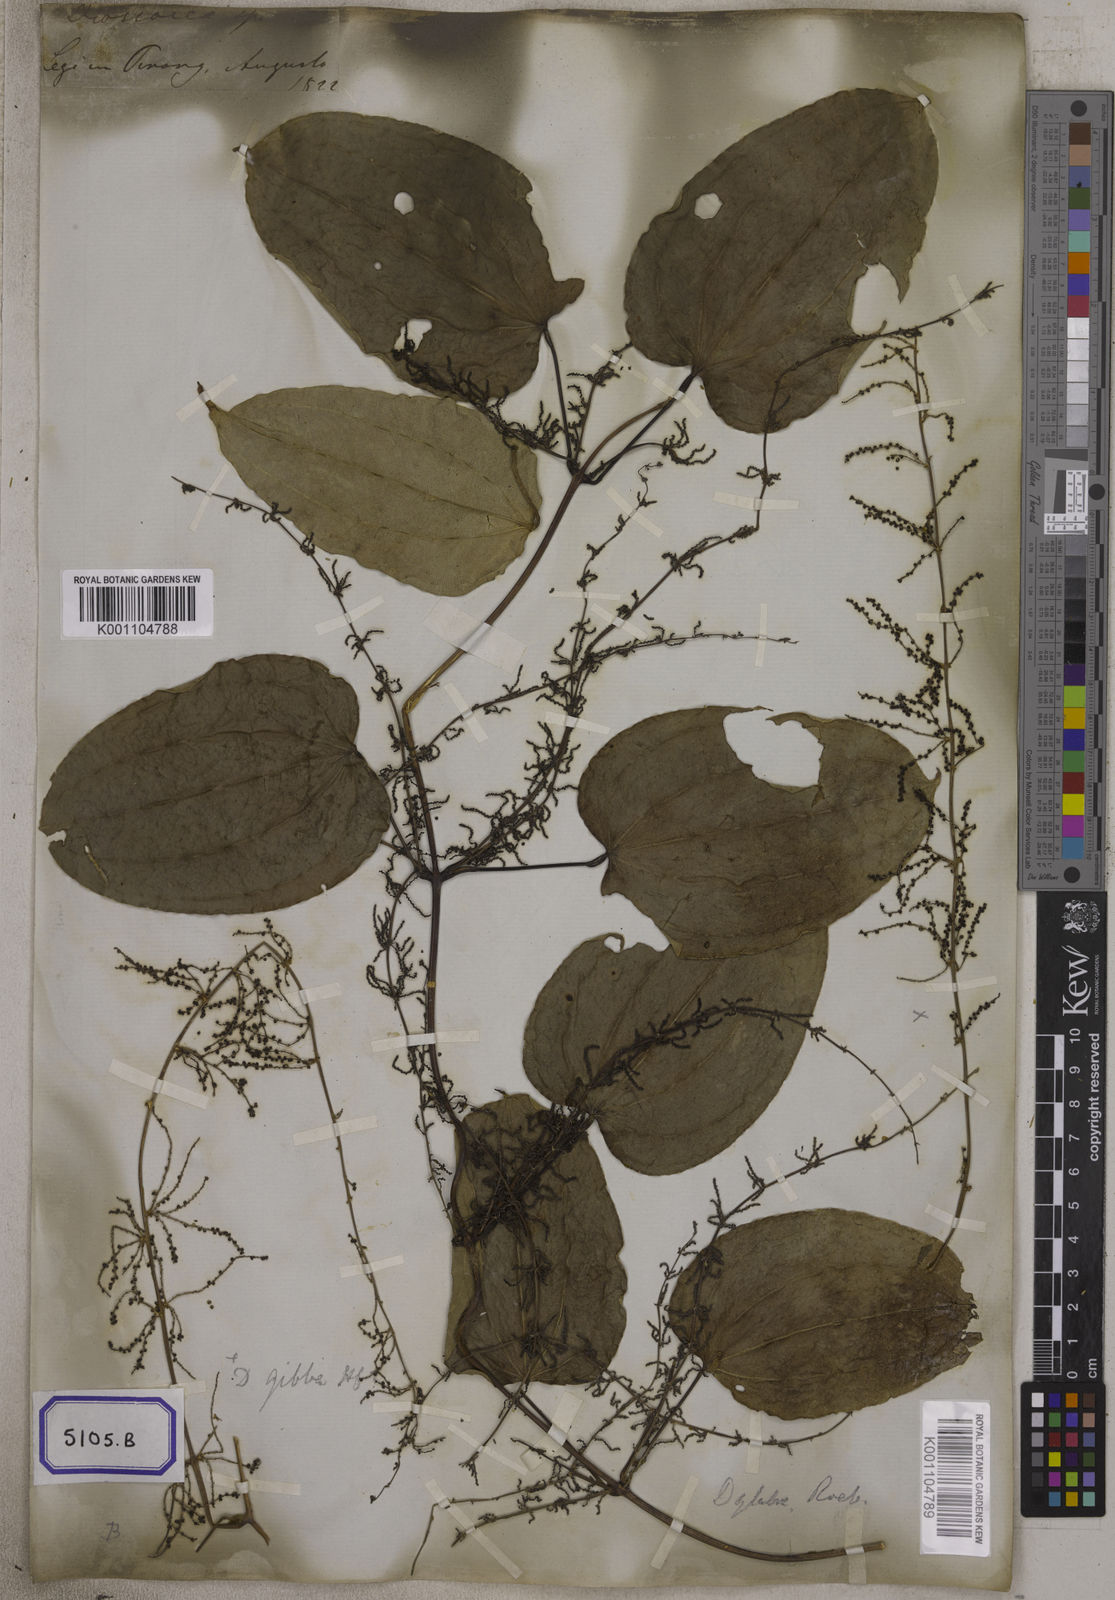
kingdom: Plantae
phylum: Tracheophyta
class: Liliopsida
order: Dioscoreales
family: Dioscoreaceae
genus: Dioscorea
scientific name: Dioscorea glabra
